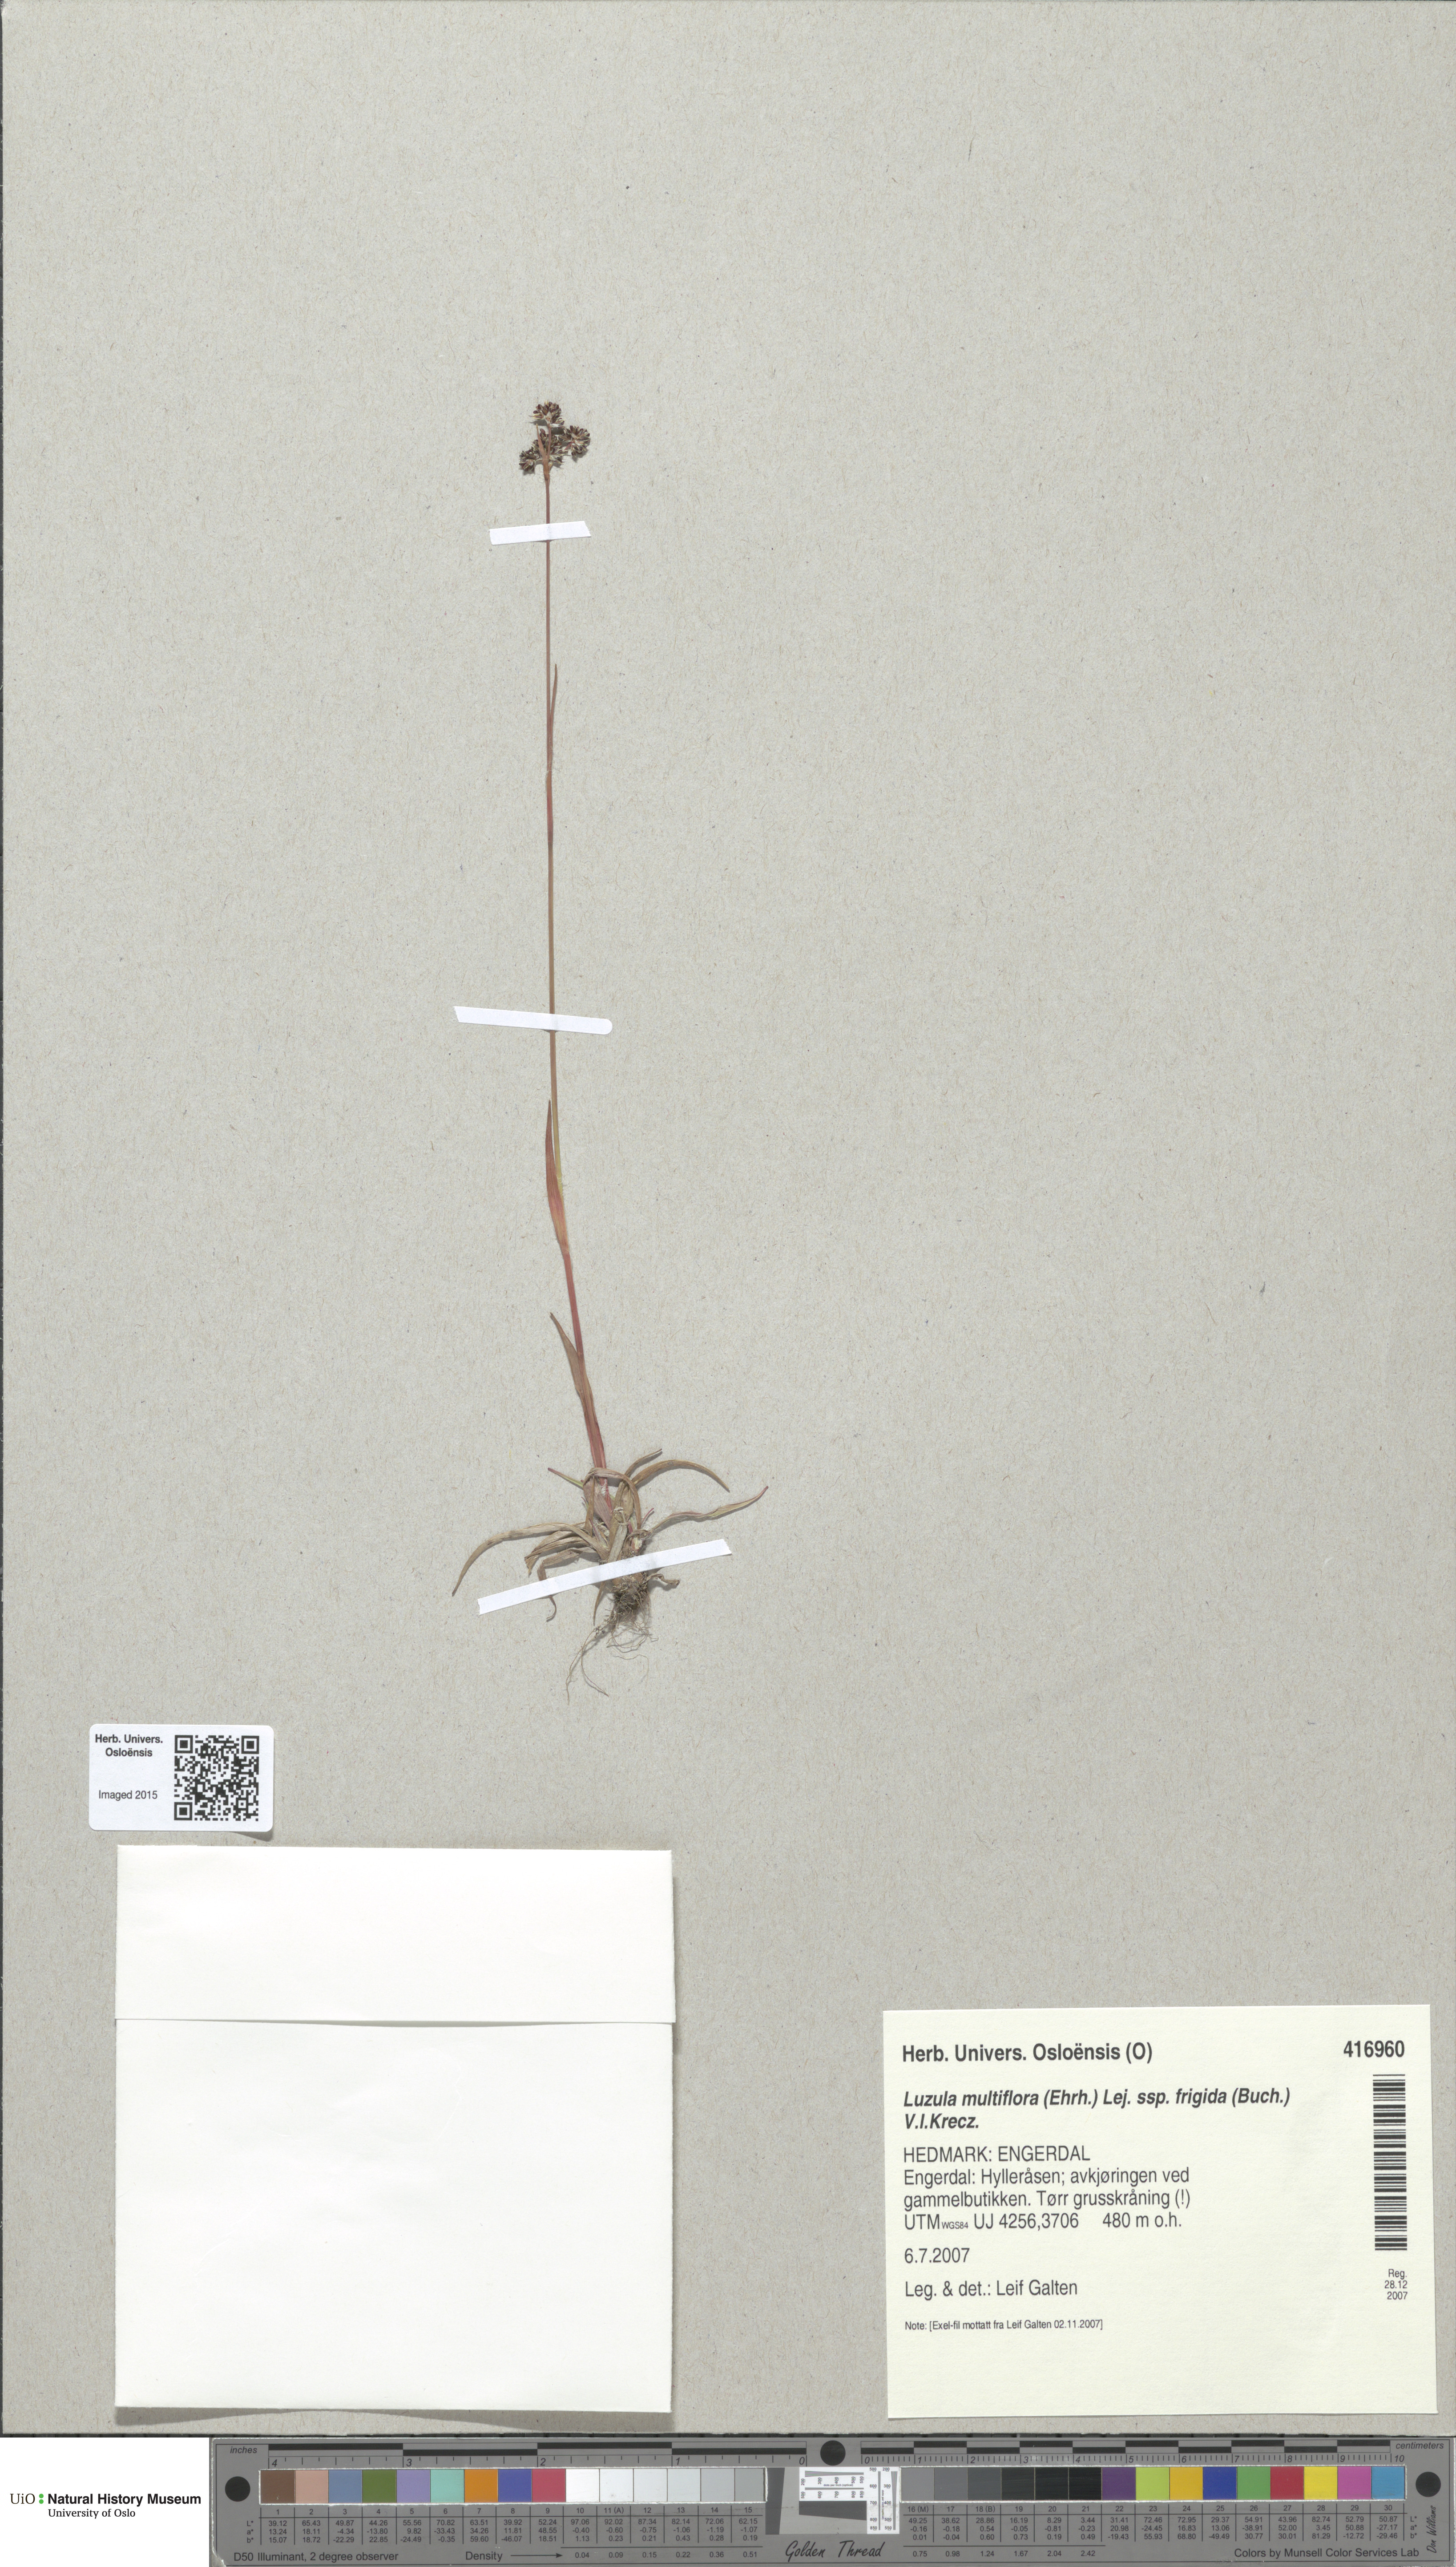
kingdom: Plantae
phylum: Tracheophyta
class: Liliopsida
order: Poales
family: Juncaceae
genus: Luzula
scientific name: Luzula multiflora
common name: Heath wood-rush
